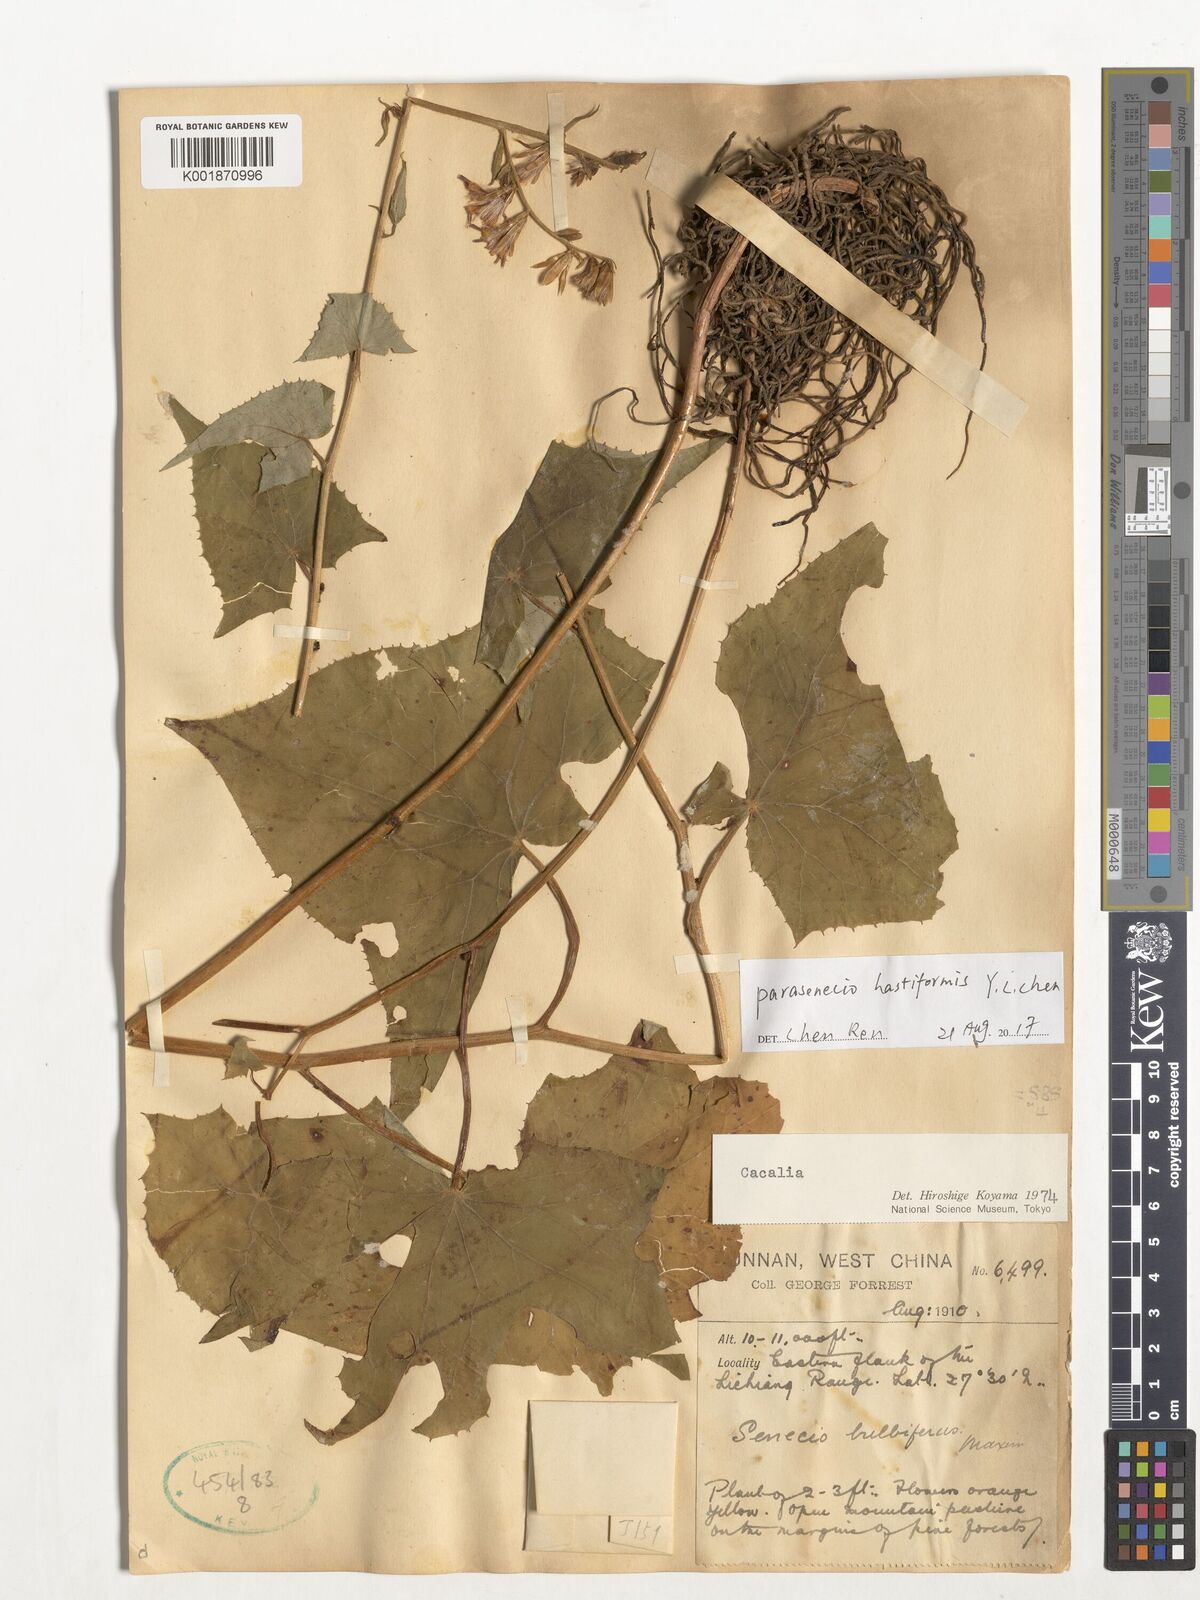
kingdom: Plantae
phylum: Tracheophyta
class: Magnoliopsida
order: Asterales
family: Asteraceae
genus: Parasenecio
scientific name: Parasenecio hastiformis
